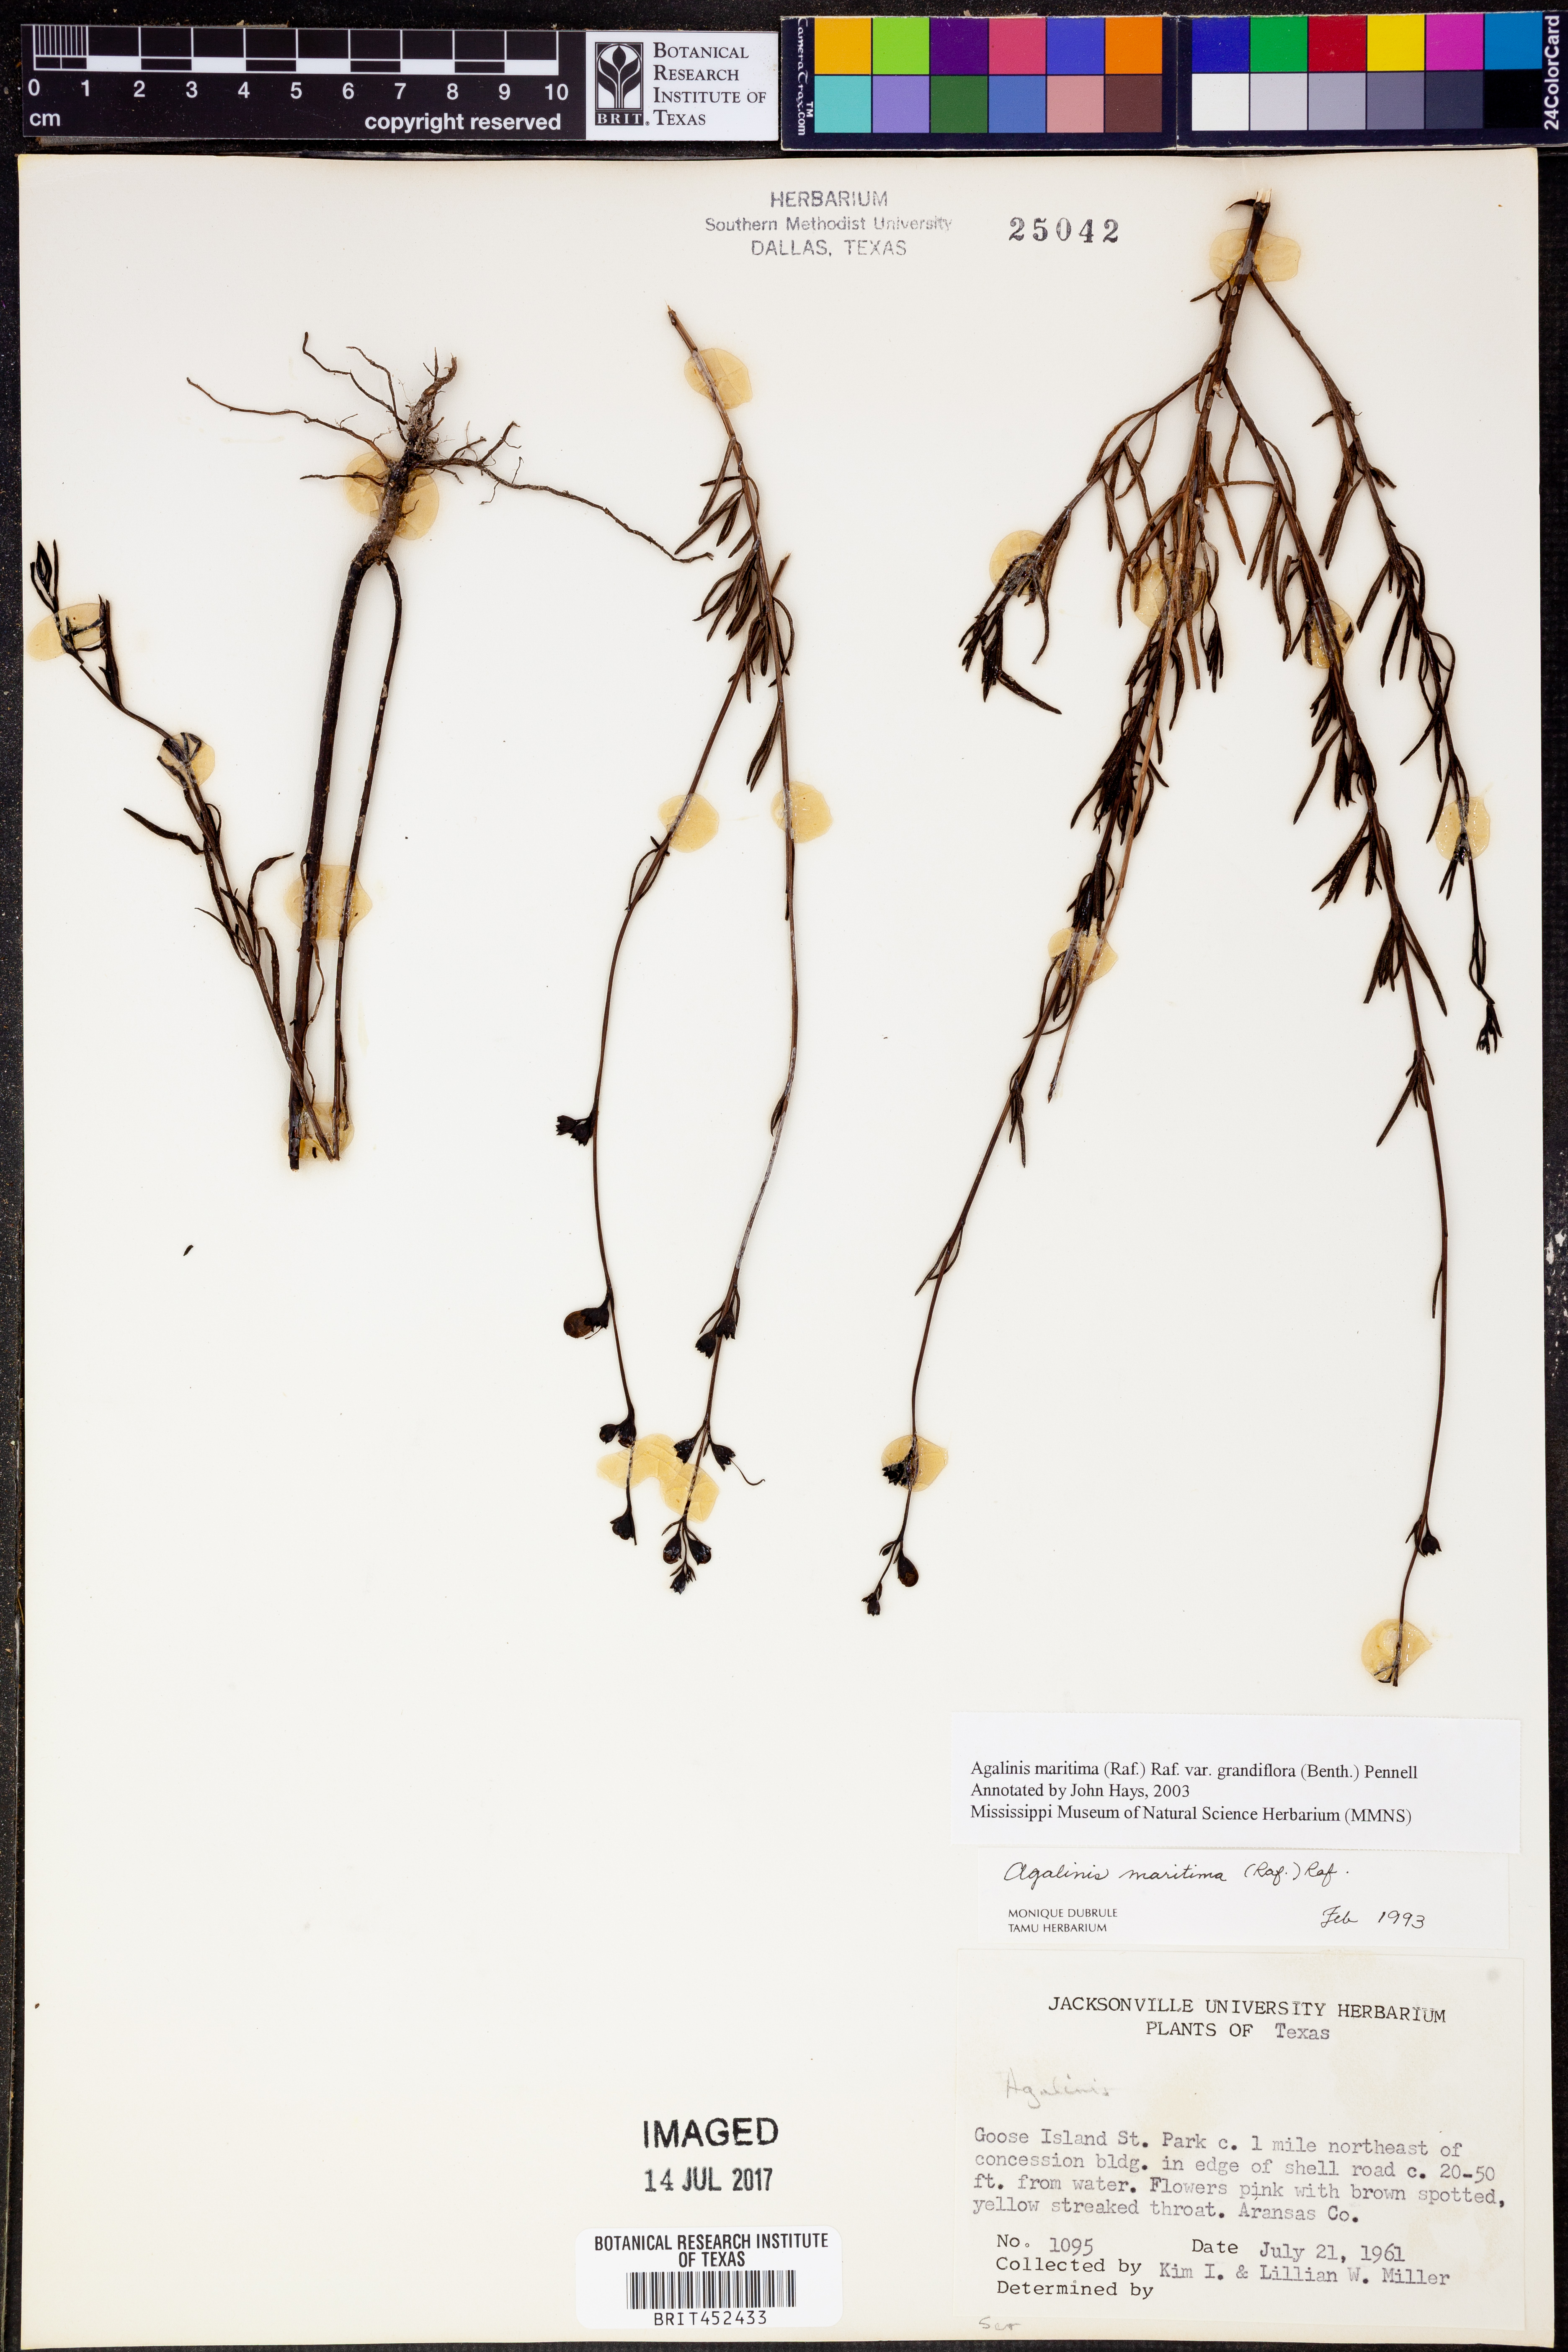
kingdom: Plantae
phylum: Tracheophyta
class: Magnoliopsida
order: Lamiales
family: Orobanchaceae
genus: Agalinis
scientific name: Agalinis maritima
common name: Saltmarsh agalinis
